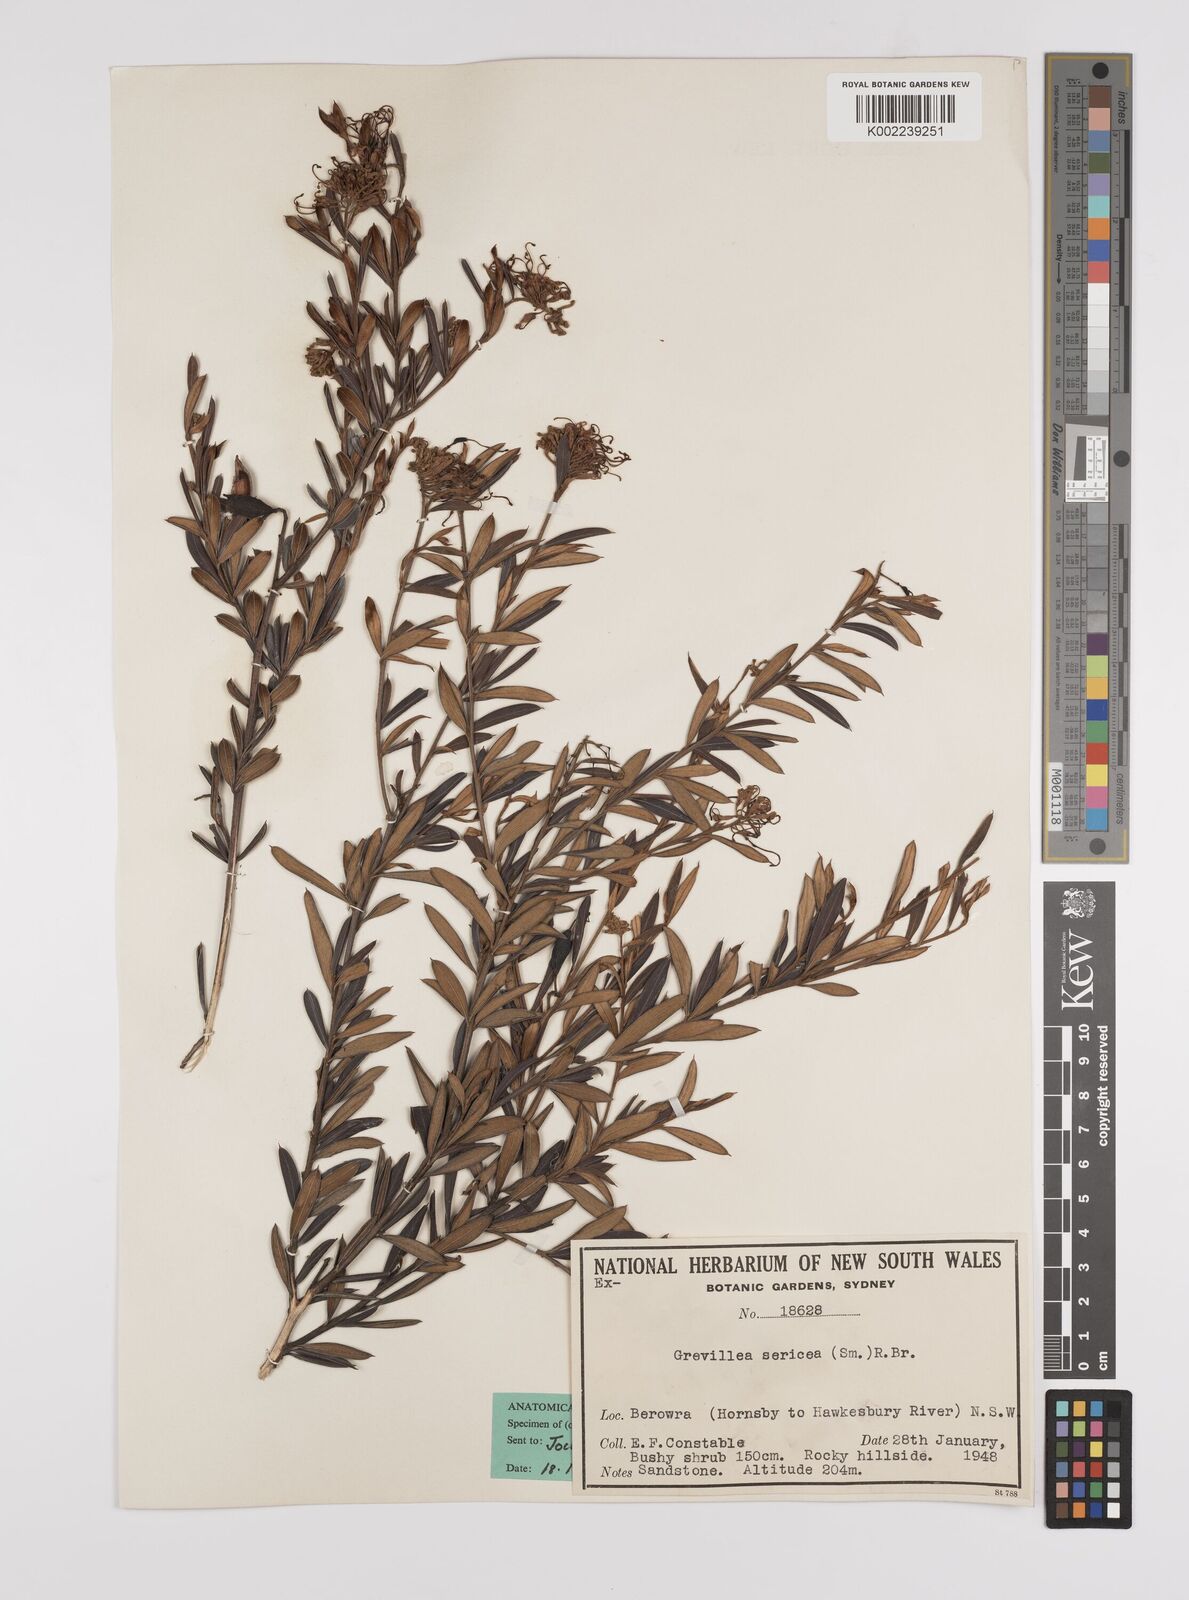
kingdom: Plantae
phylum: Tracheophyta
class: Magnoliopsida
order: Proteales
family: Proteaceae
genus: Grevillea
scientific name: Grevillea sericea
